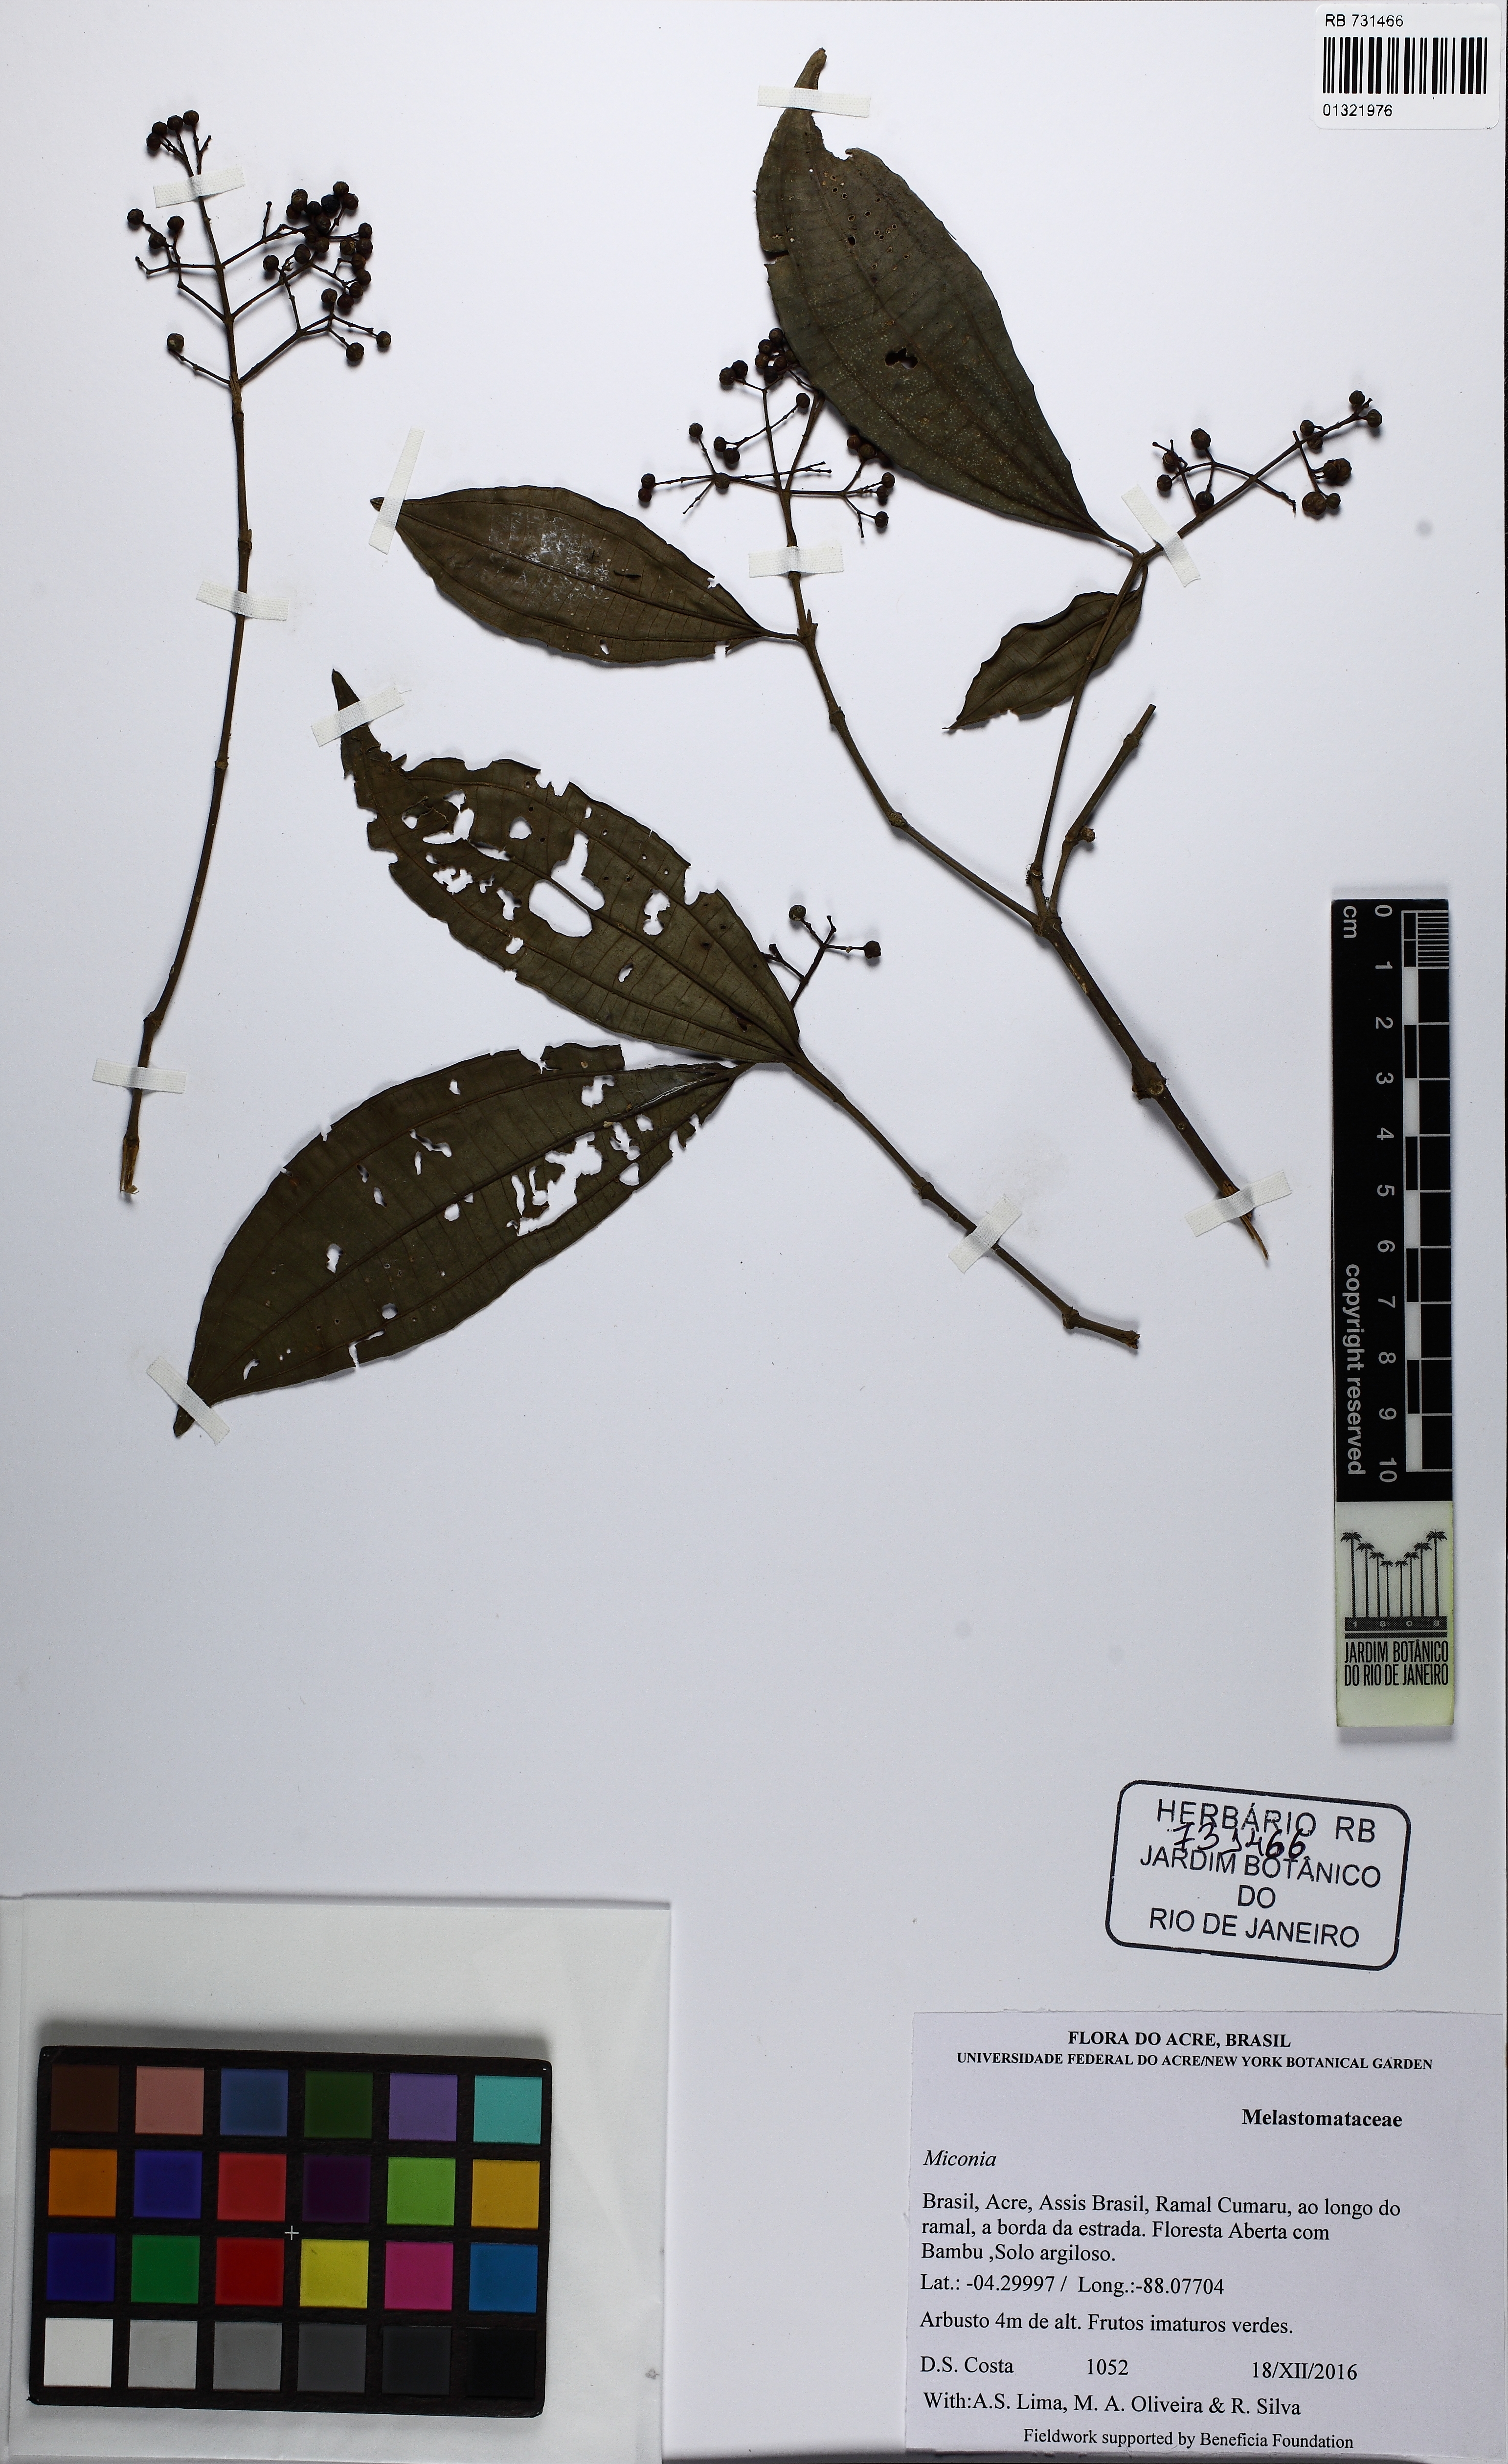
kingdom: Plantae
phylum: Tracheophyta
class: Magnoliopsida
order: Myrtales
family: Melastomataceae
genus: Miconia
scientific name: Miconia
